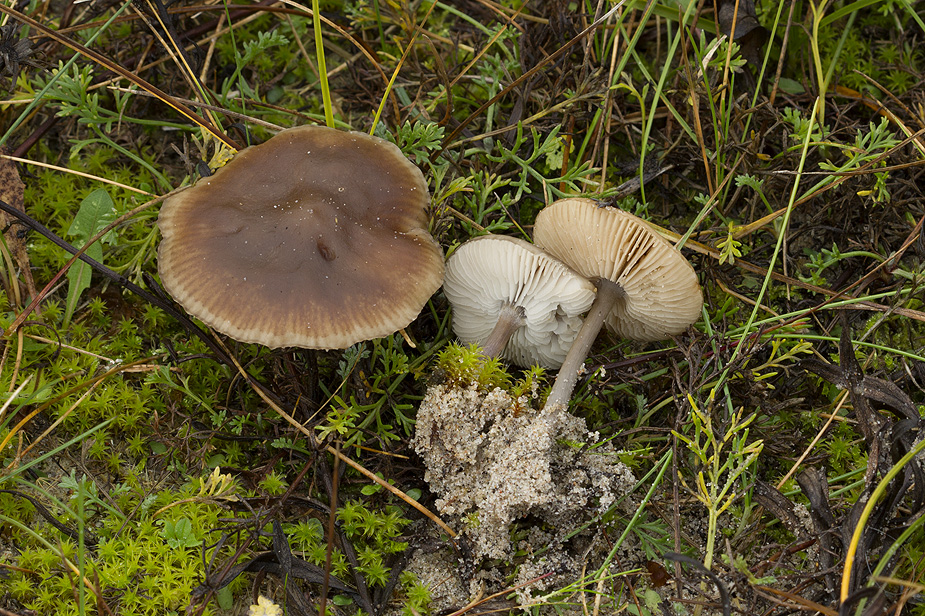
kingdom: Fungi
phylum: Basidiomycota
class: Agaricomycetes
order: Agaricales
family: Tricholomataceae
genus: Melanoleuca
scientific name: Melanoleuca microcephala
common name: spinkel munkehat
